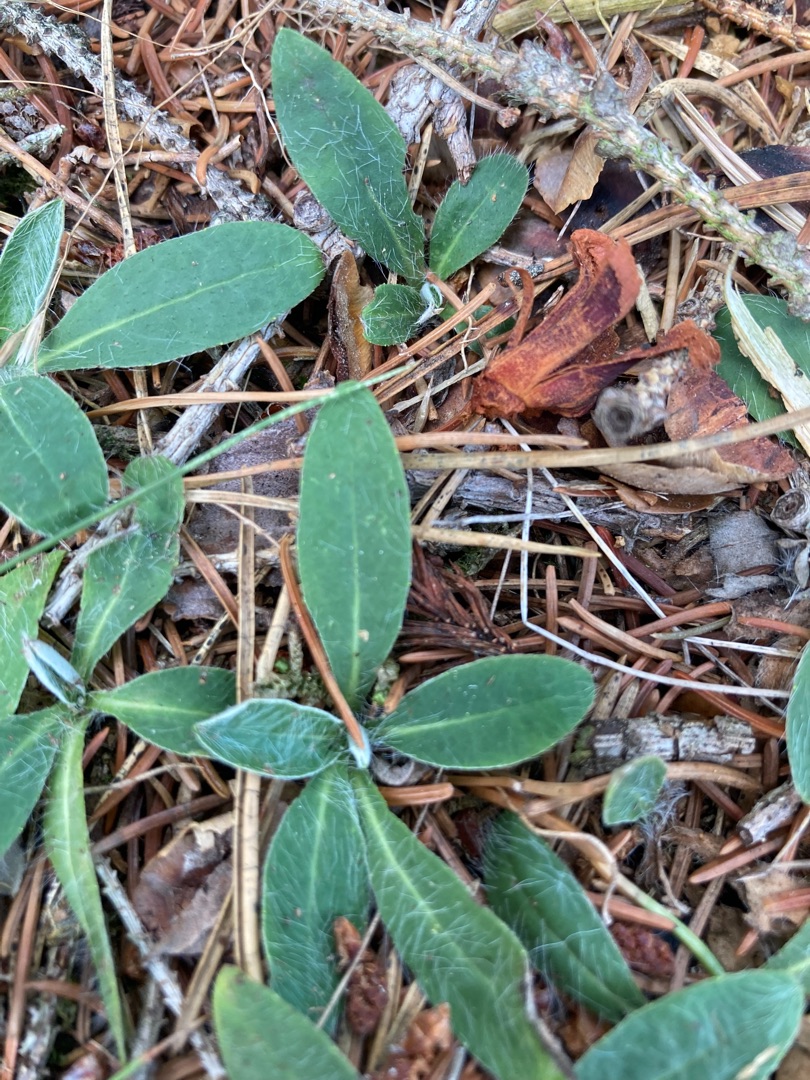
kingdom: Plantae
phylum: Tracheophyta
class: Magnoliopsida
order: Asterales
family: Asteraceae
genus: Pilosella
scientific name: Pilosella officinarum
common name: Håret høgeurt
